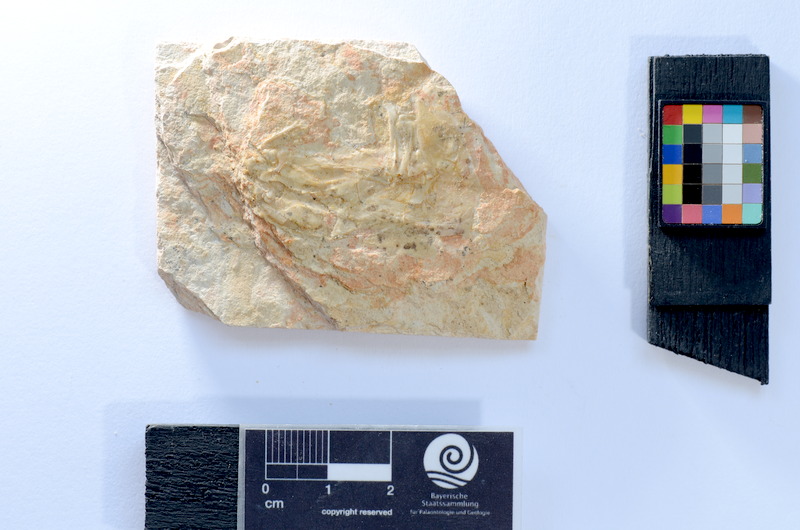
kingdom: Animalia
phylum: Chordata
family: Ascalaboidae
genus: Tharsis
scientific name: Tharsis dubius
